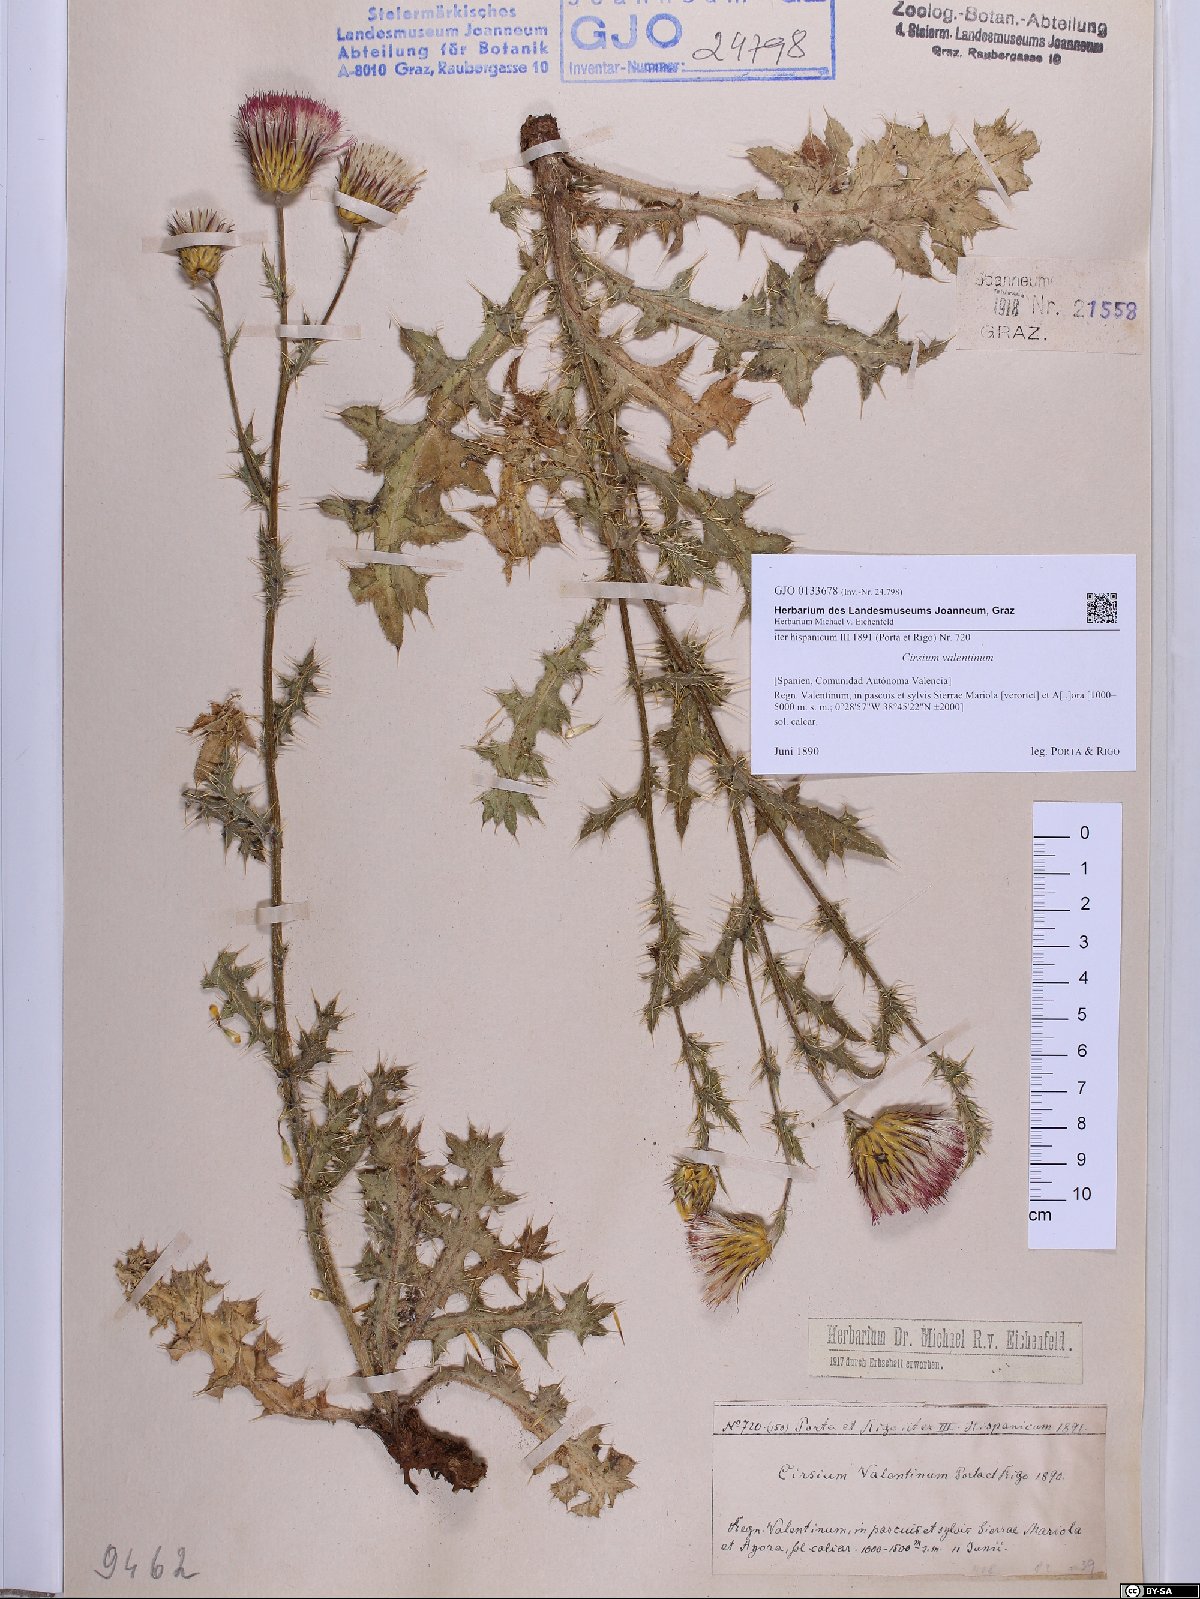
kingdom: Plantae
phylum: Tracheophyta
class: Magnoliopsida
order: Asterales
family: Asteraceae
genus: Cirsium
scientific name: Cirsium valentinum
